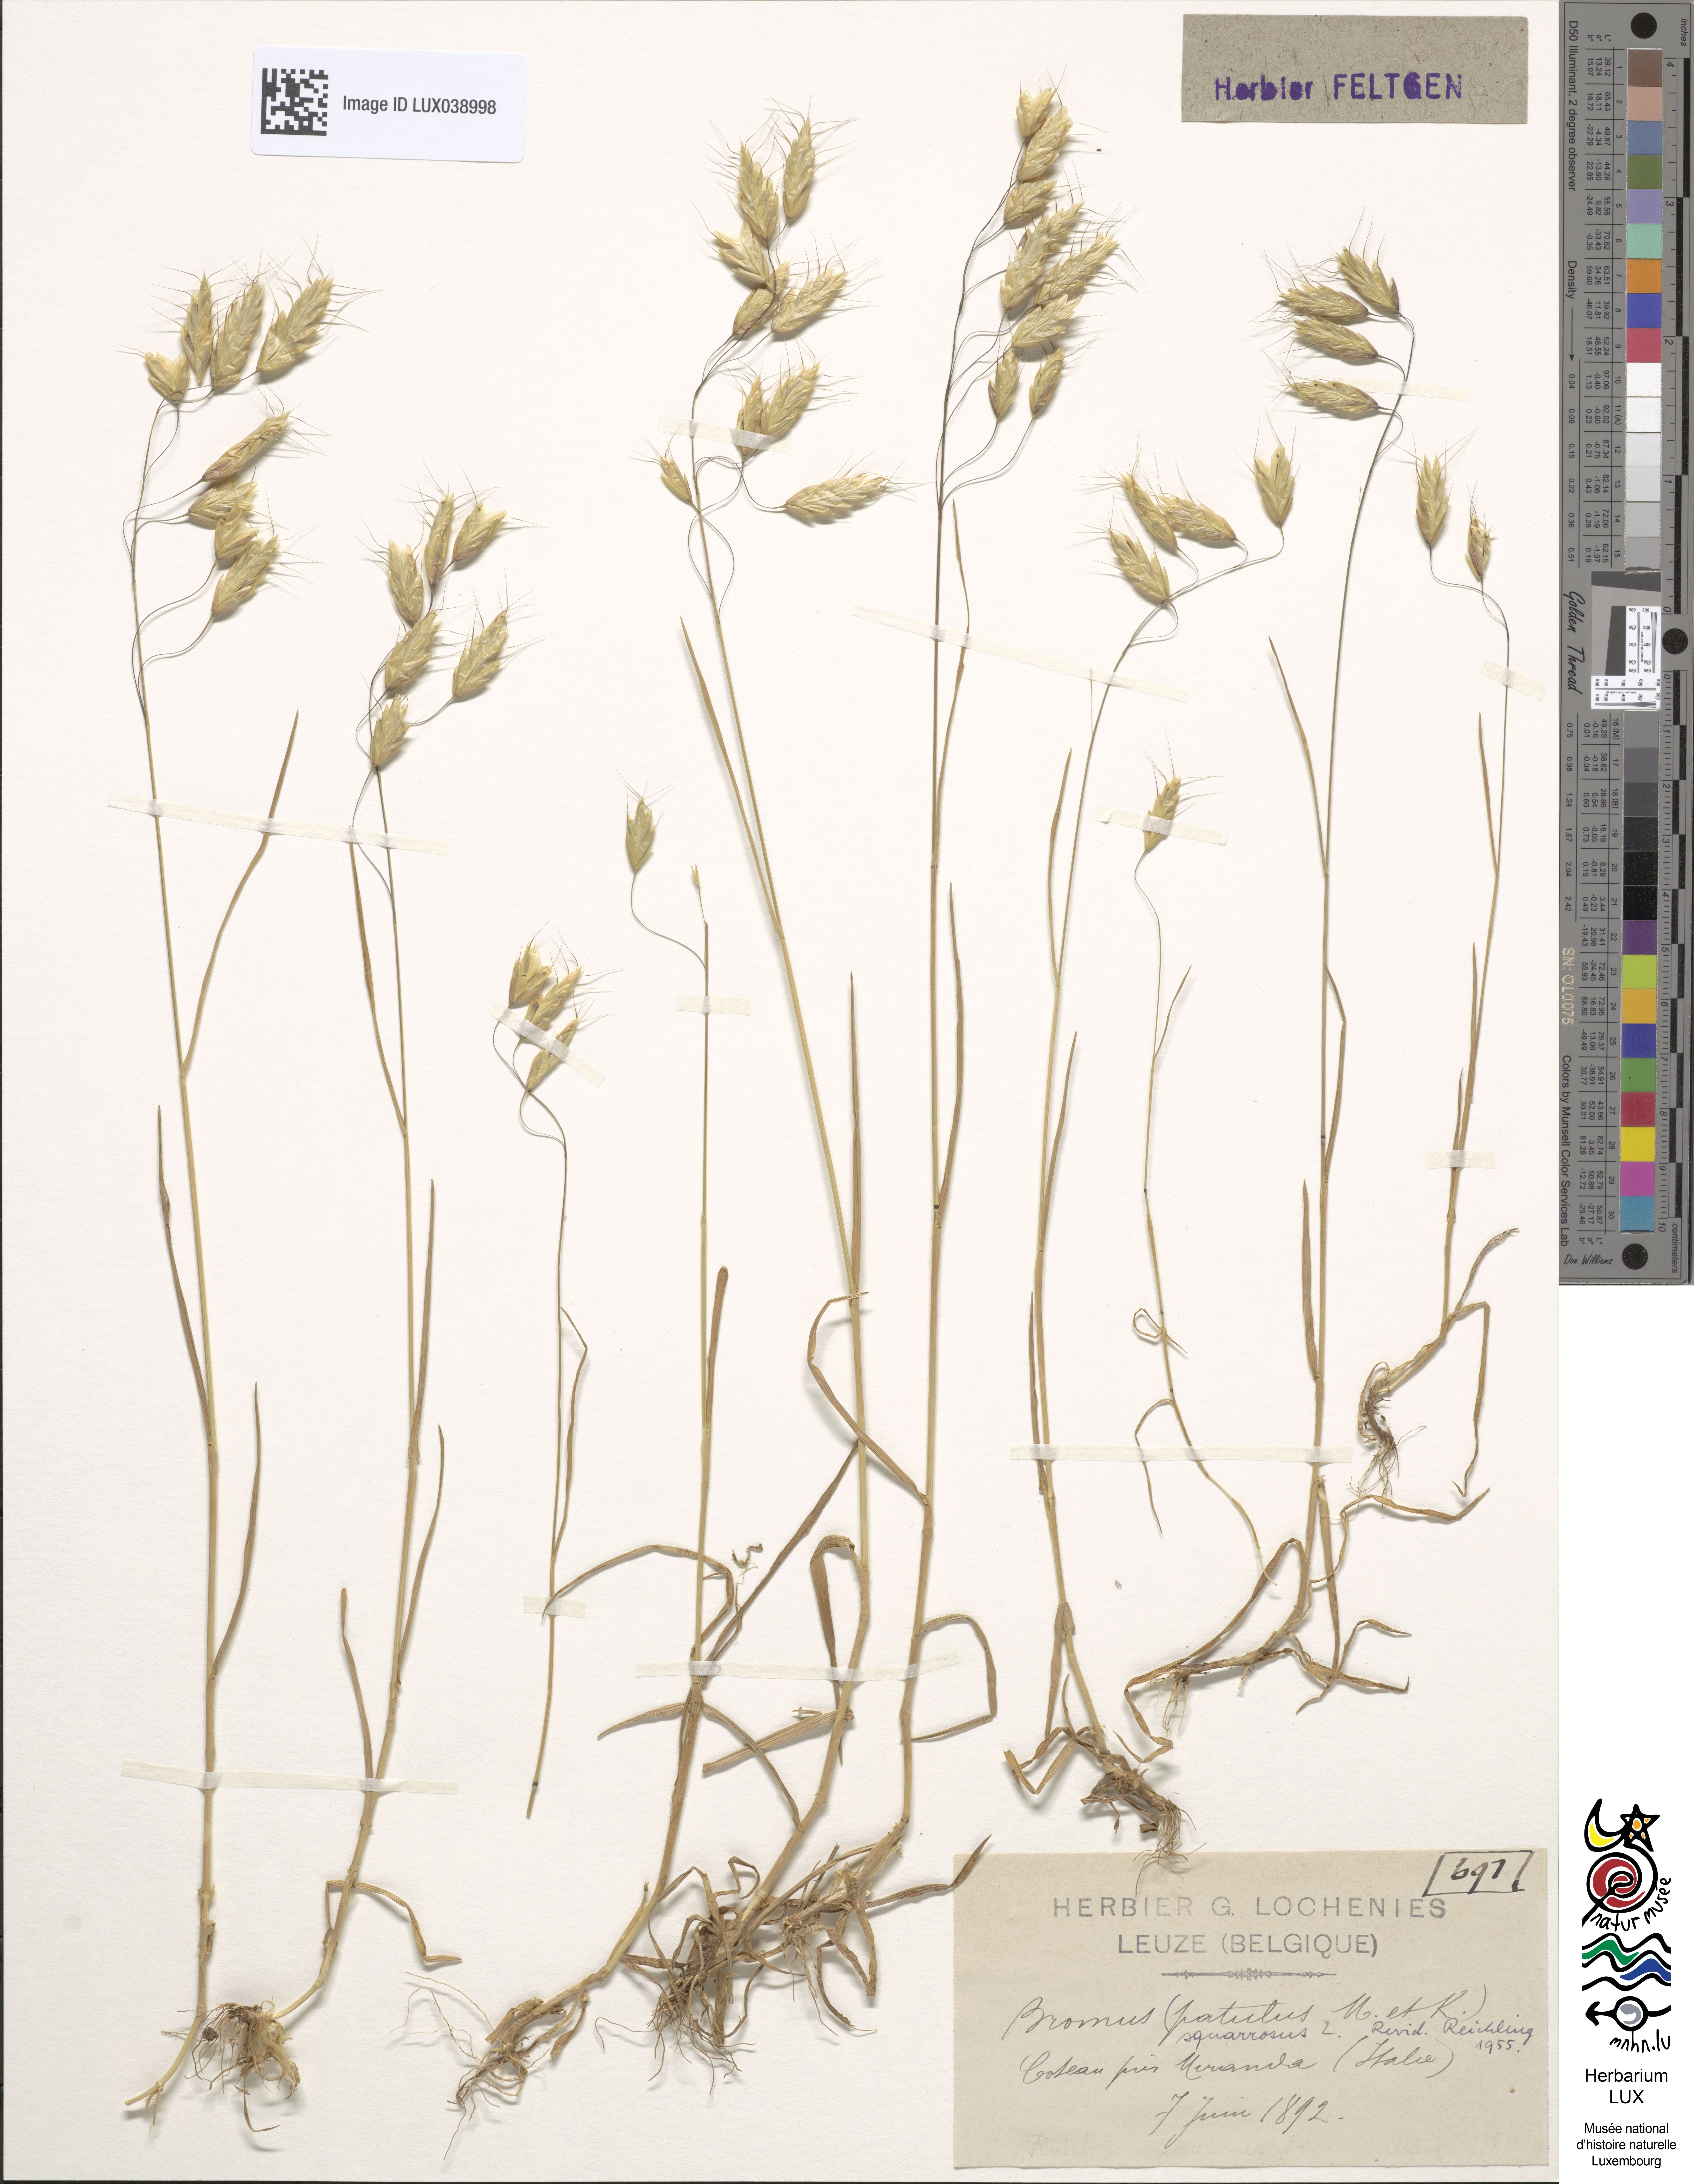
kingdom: Plantae
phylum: Tracheophyta
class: Liliopsida
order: Poales
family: Poaceae
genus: Bromus
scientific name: Bromus japonicus
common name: Japanese brome
